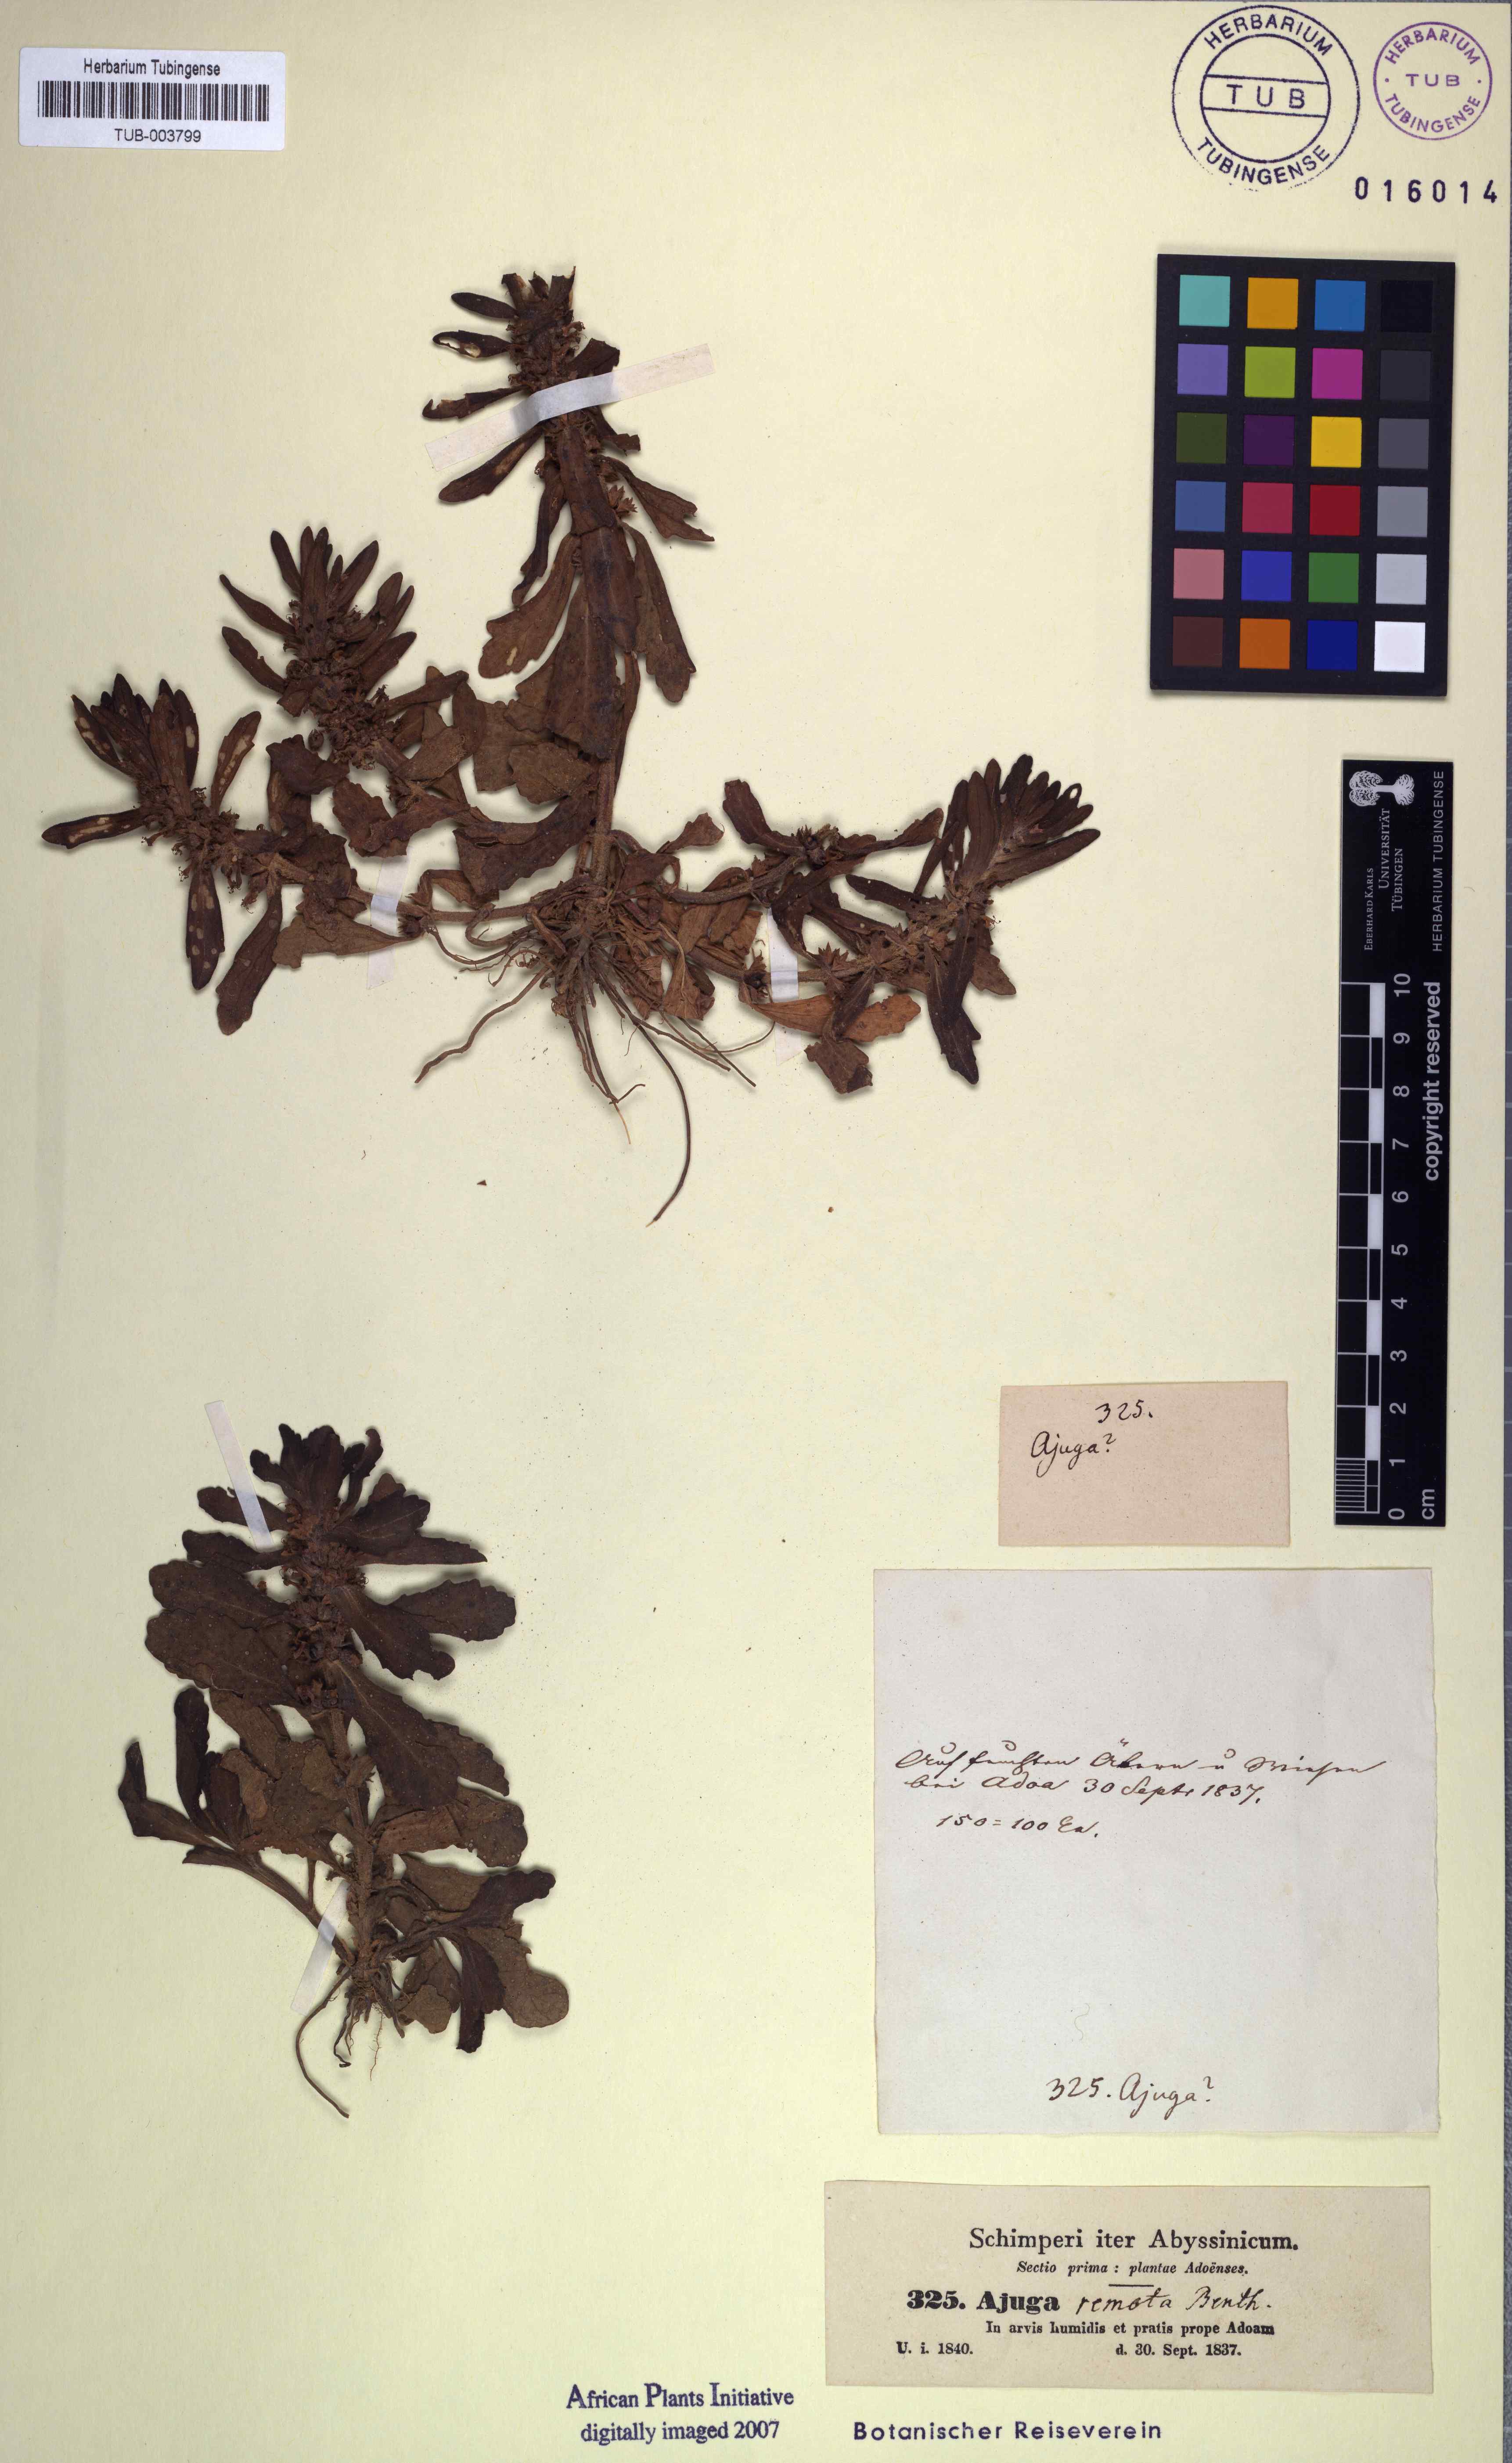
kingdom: Plantae
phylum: Tracheophyta
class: Magnoliopsida
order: Lamiales
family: Lamiaceae
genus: Ajuga
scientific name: Ajuga integrifolia
